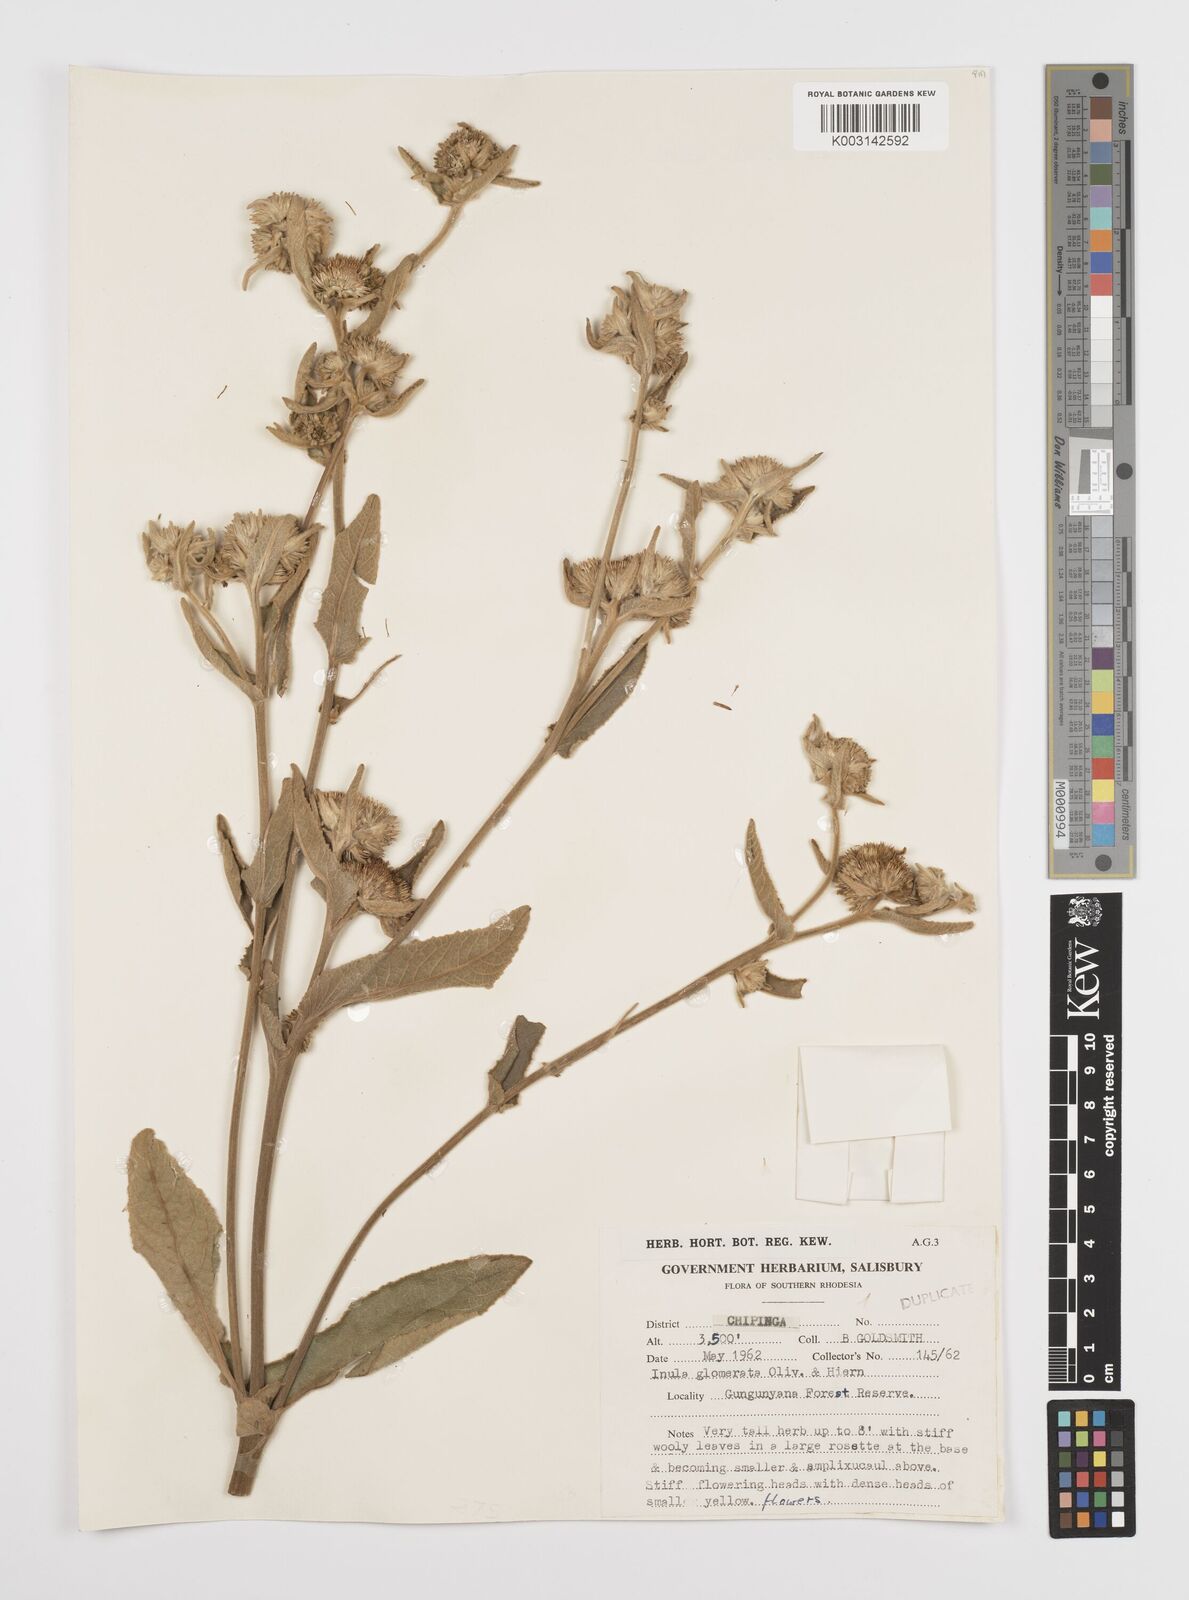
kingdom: Plantae
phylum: Tracheophyta
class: Magnoliopsida
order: Asterales
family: Asteraceae
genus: Inula
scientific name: Inula glomerata
